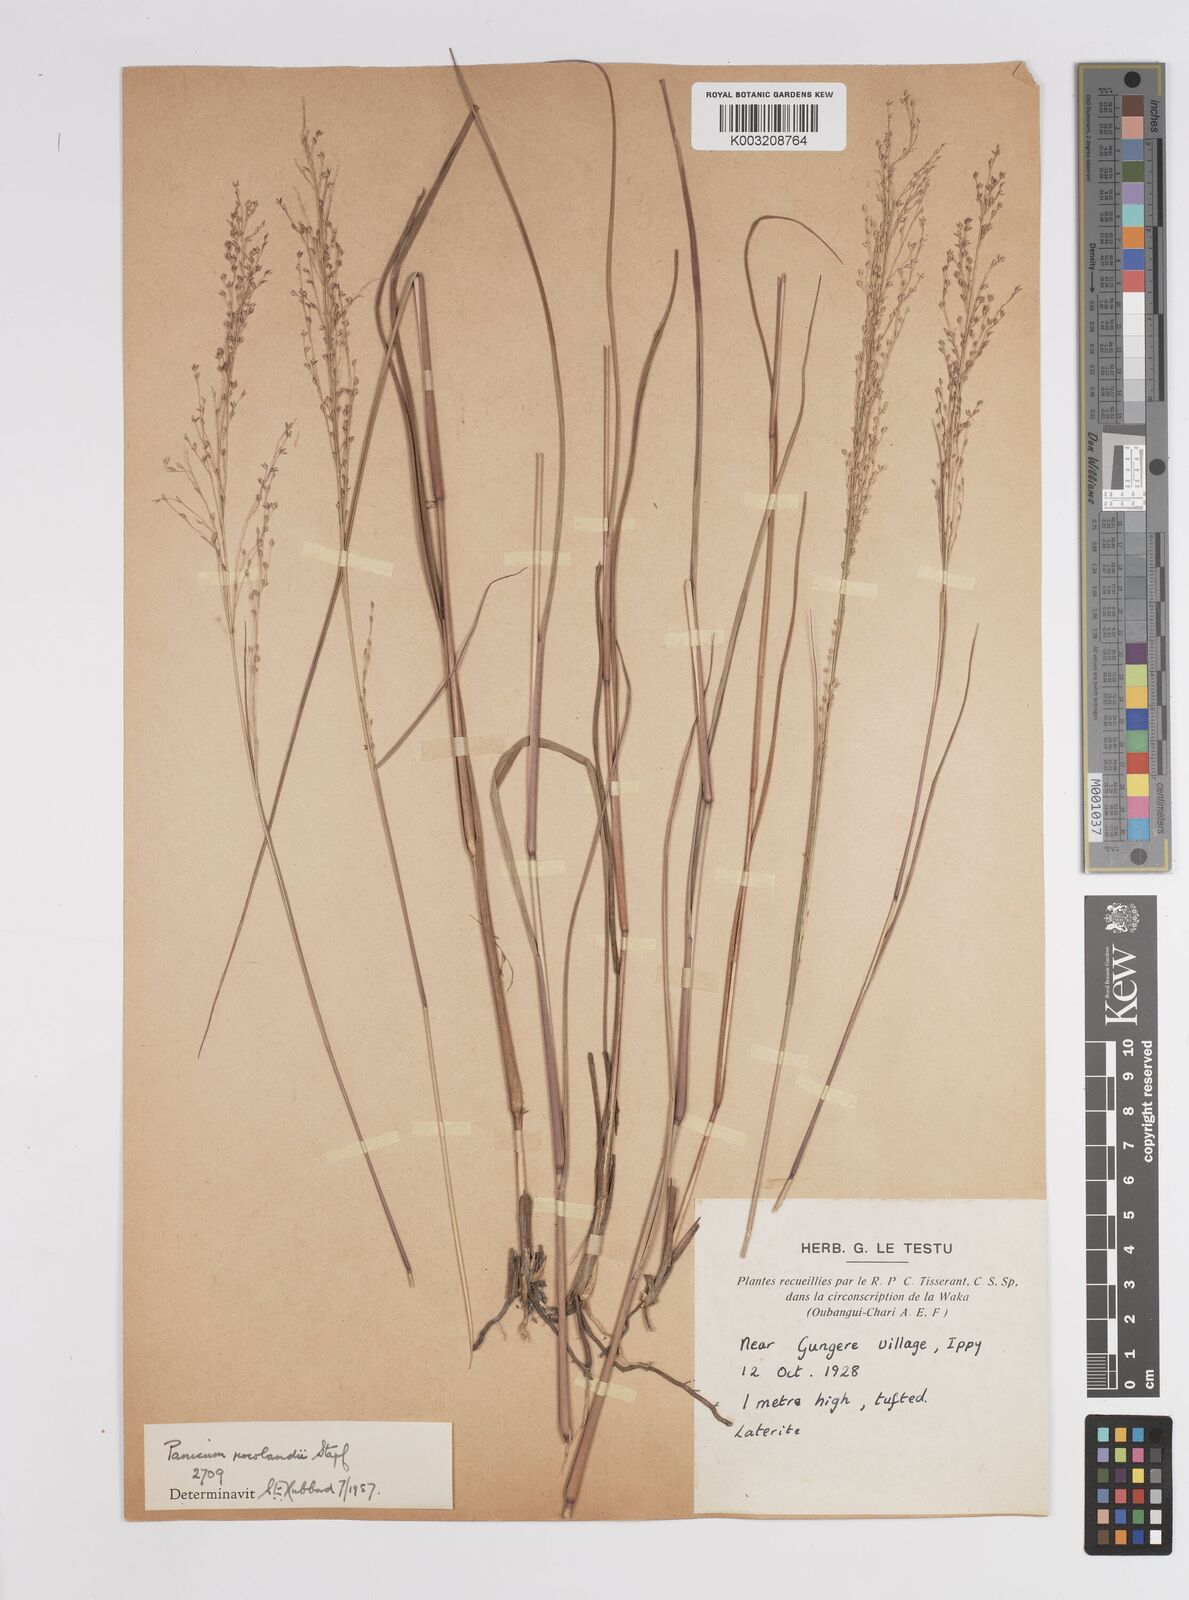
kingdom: Plantae
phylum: Tracheophyta
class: Liliopsida
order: Poales
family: Poaceae
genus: Panicum
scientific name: Panicum fluviicola
